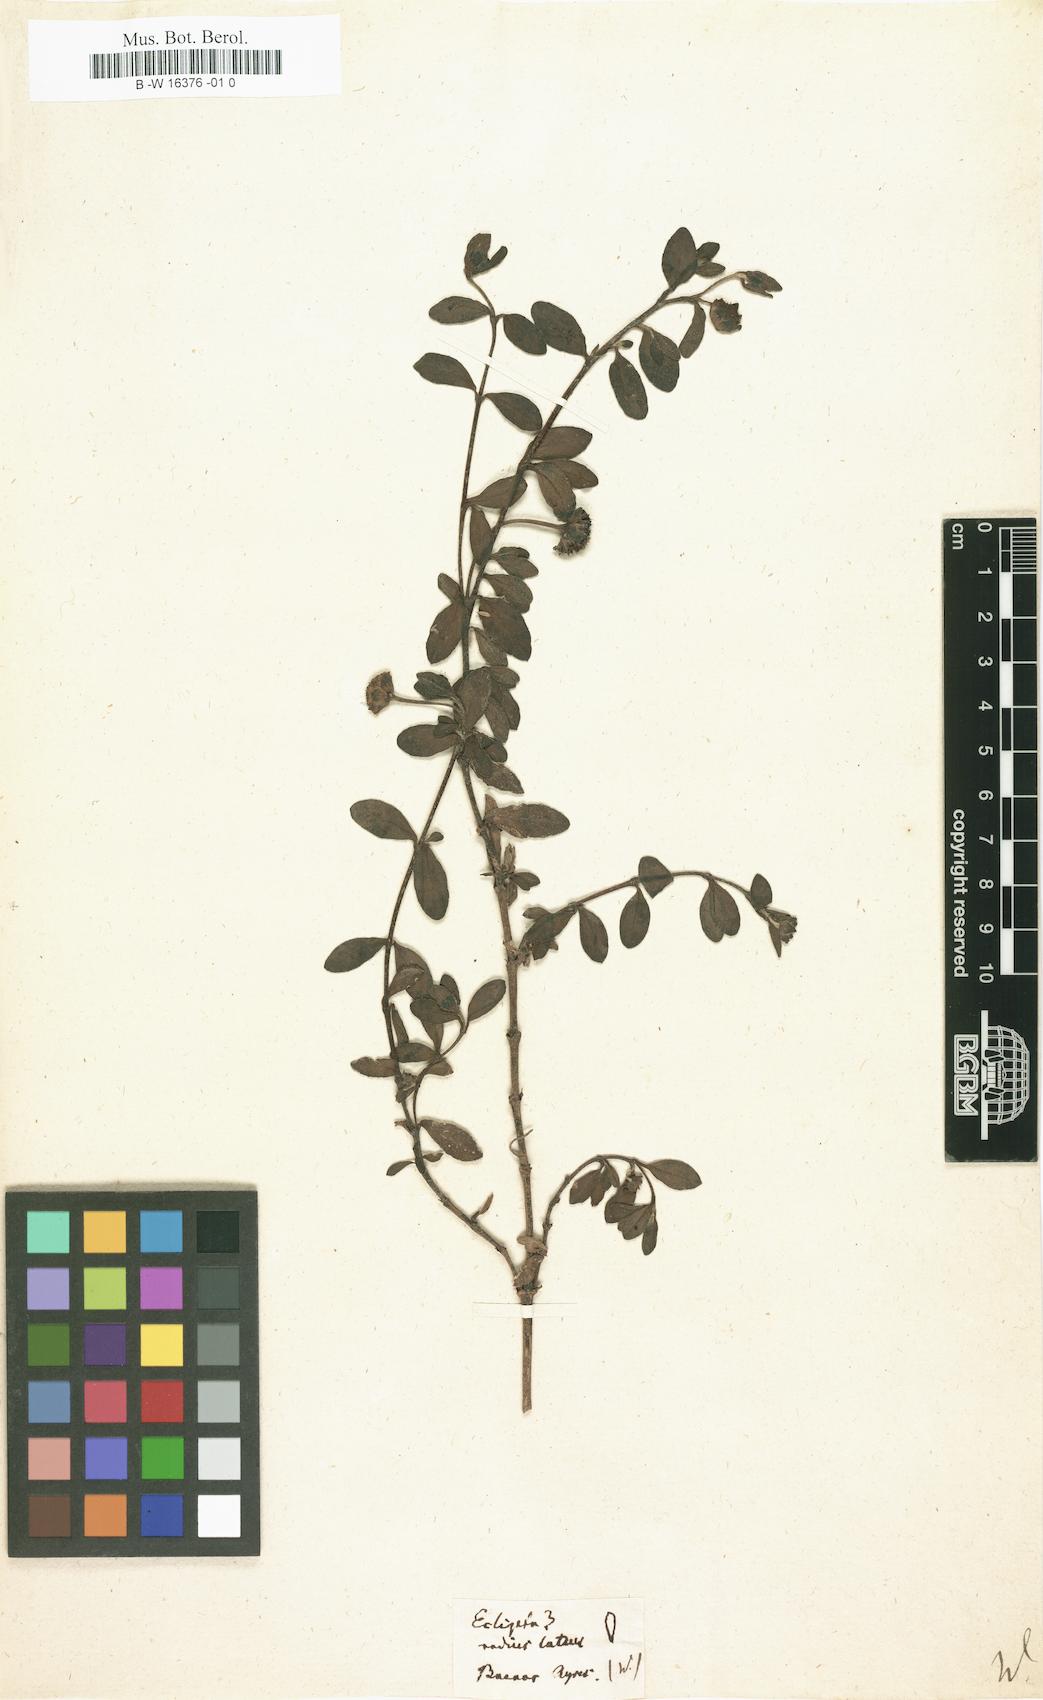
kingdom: Plantae
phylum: Tracheophyta
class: Magnoliopsida
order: Asterales
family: Asteraceae
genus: Eclipta
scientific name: Eclipta
